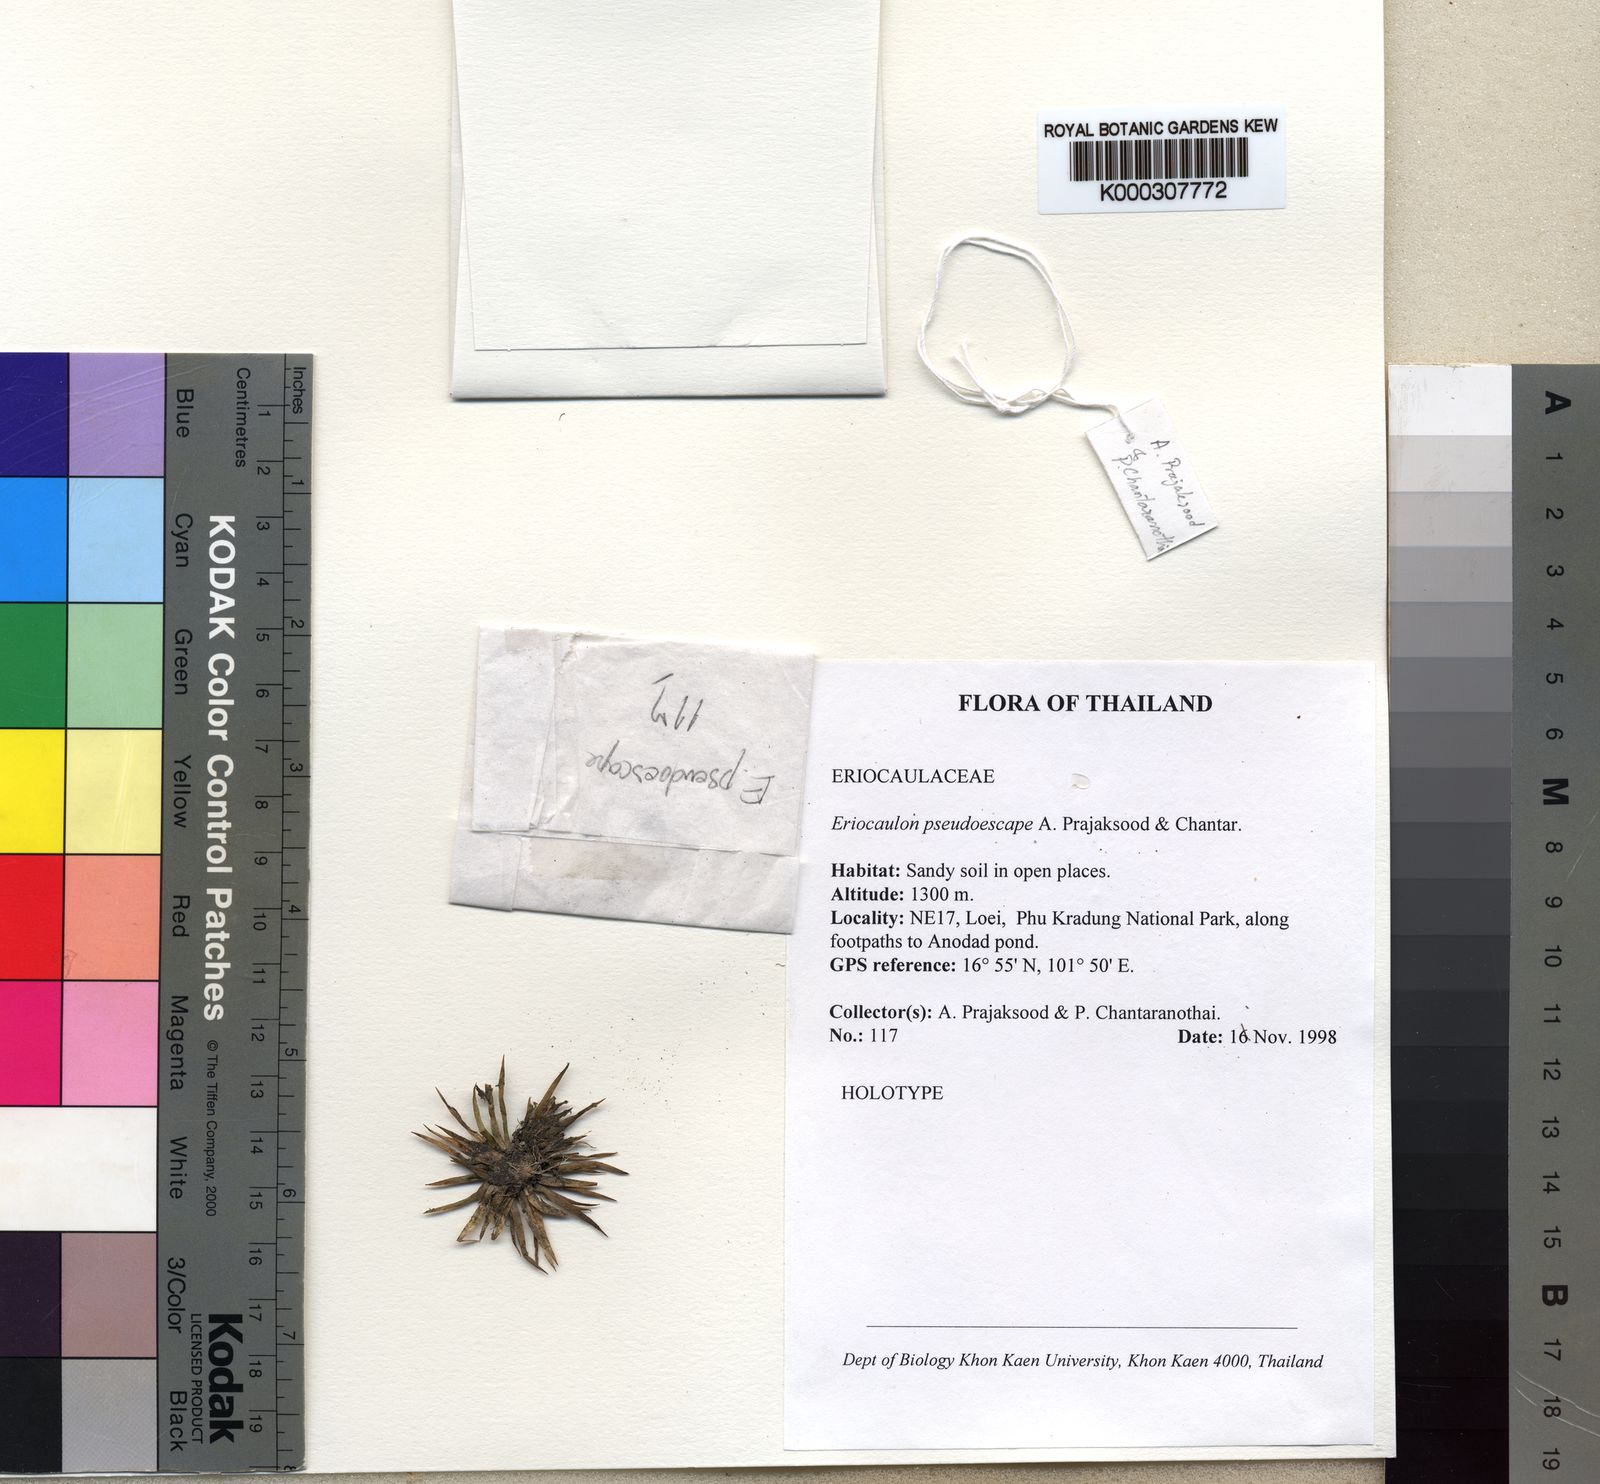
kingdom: Plantae
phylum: Tracheophyta
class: Liliopsida
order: Poales
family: Eriocaulaceae
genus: Eriocaulon
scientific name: Eriocaulon pseudoescape
